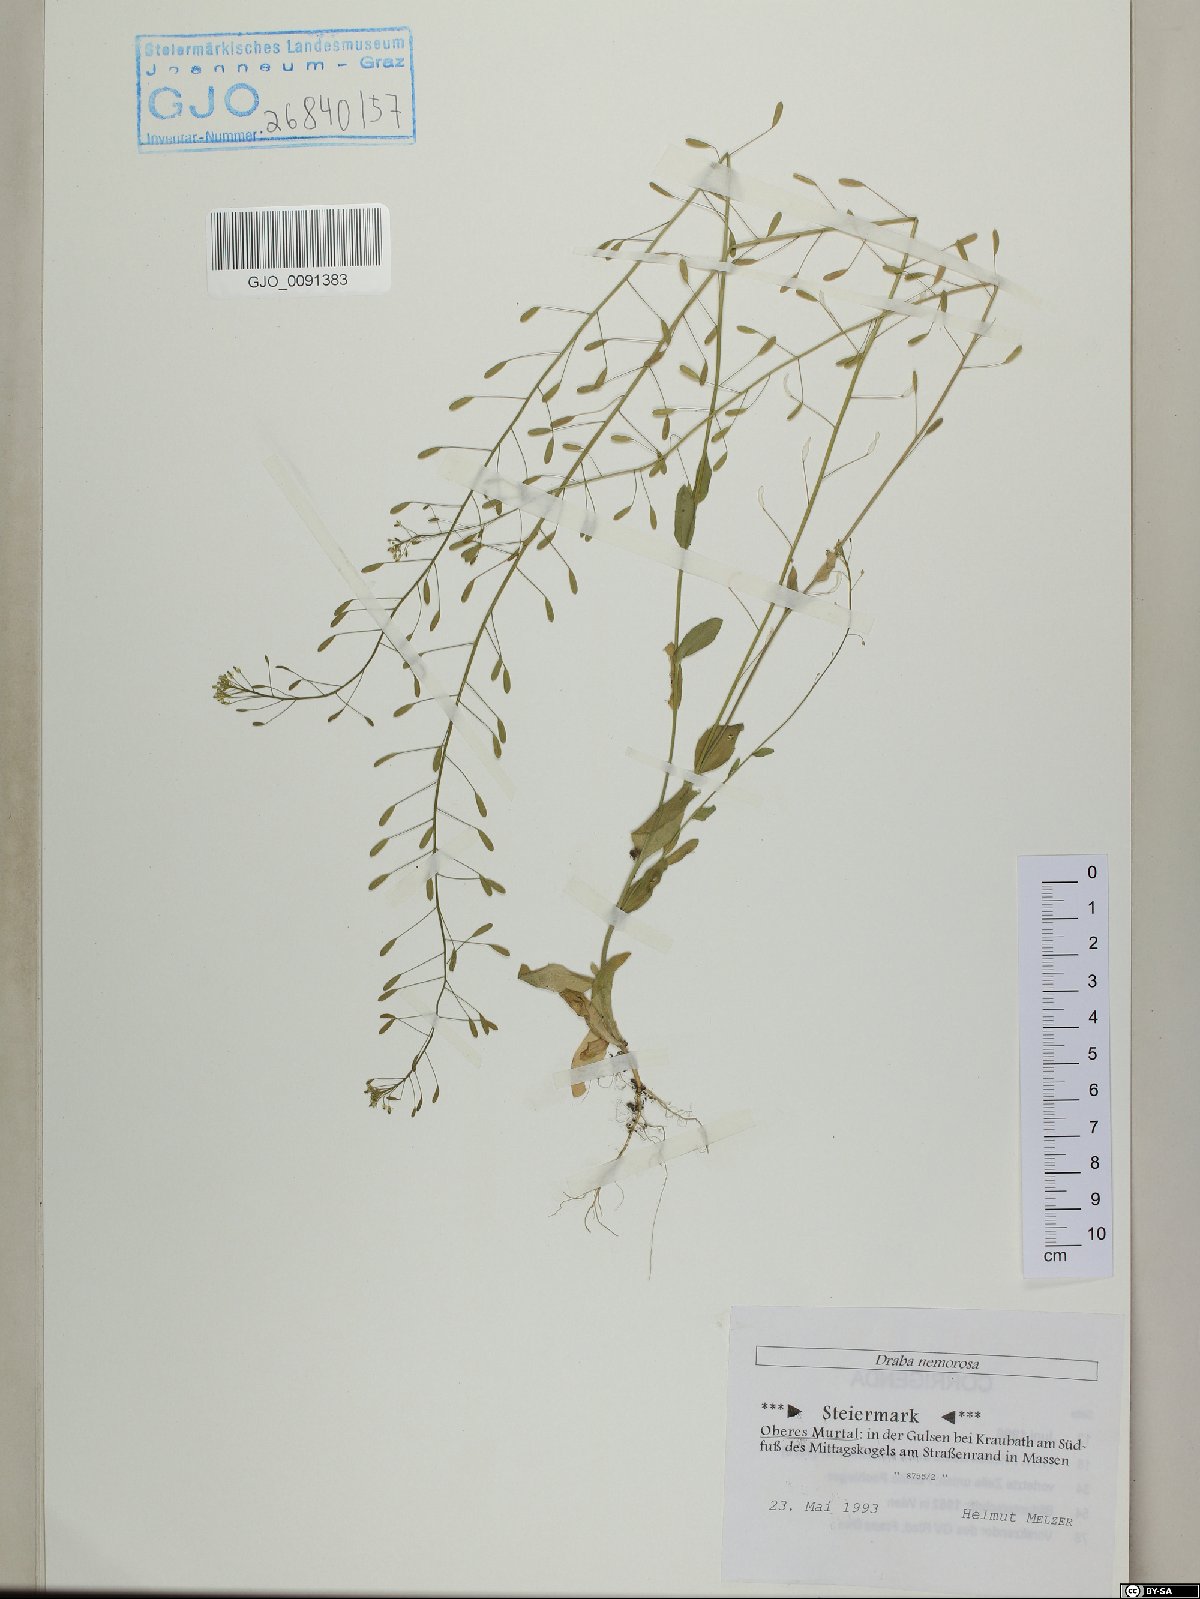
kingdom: Plantae
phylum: Tracheophyta
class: Magnoliopsida
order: Brassicales
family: Brassicaceae
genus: Draba
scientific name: Draba nemorosa
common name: Wood whitlow-grass
